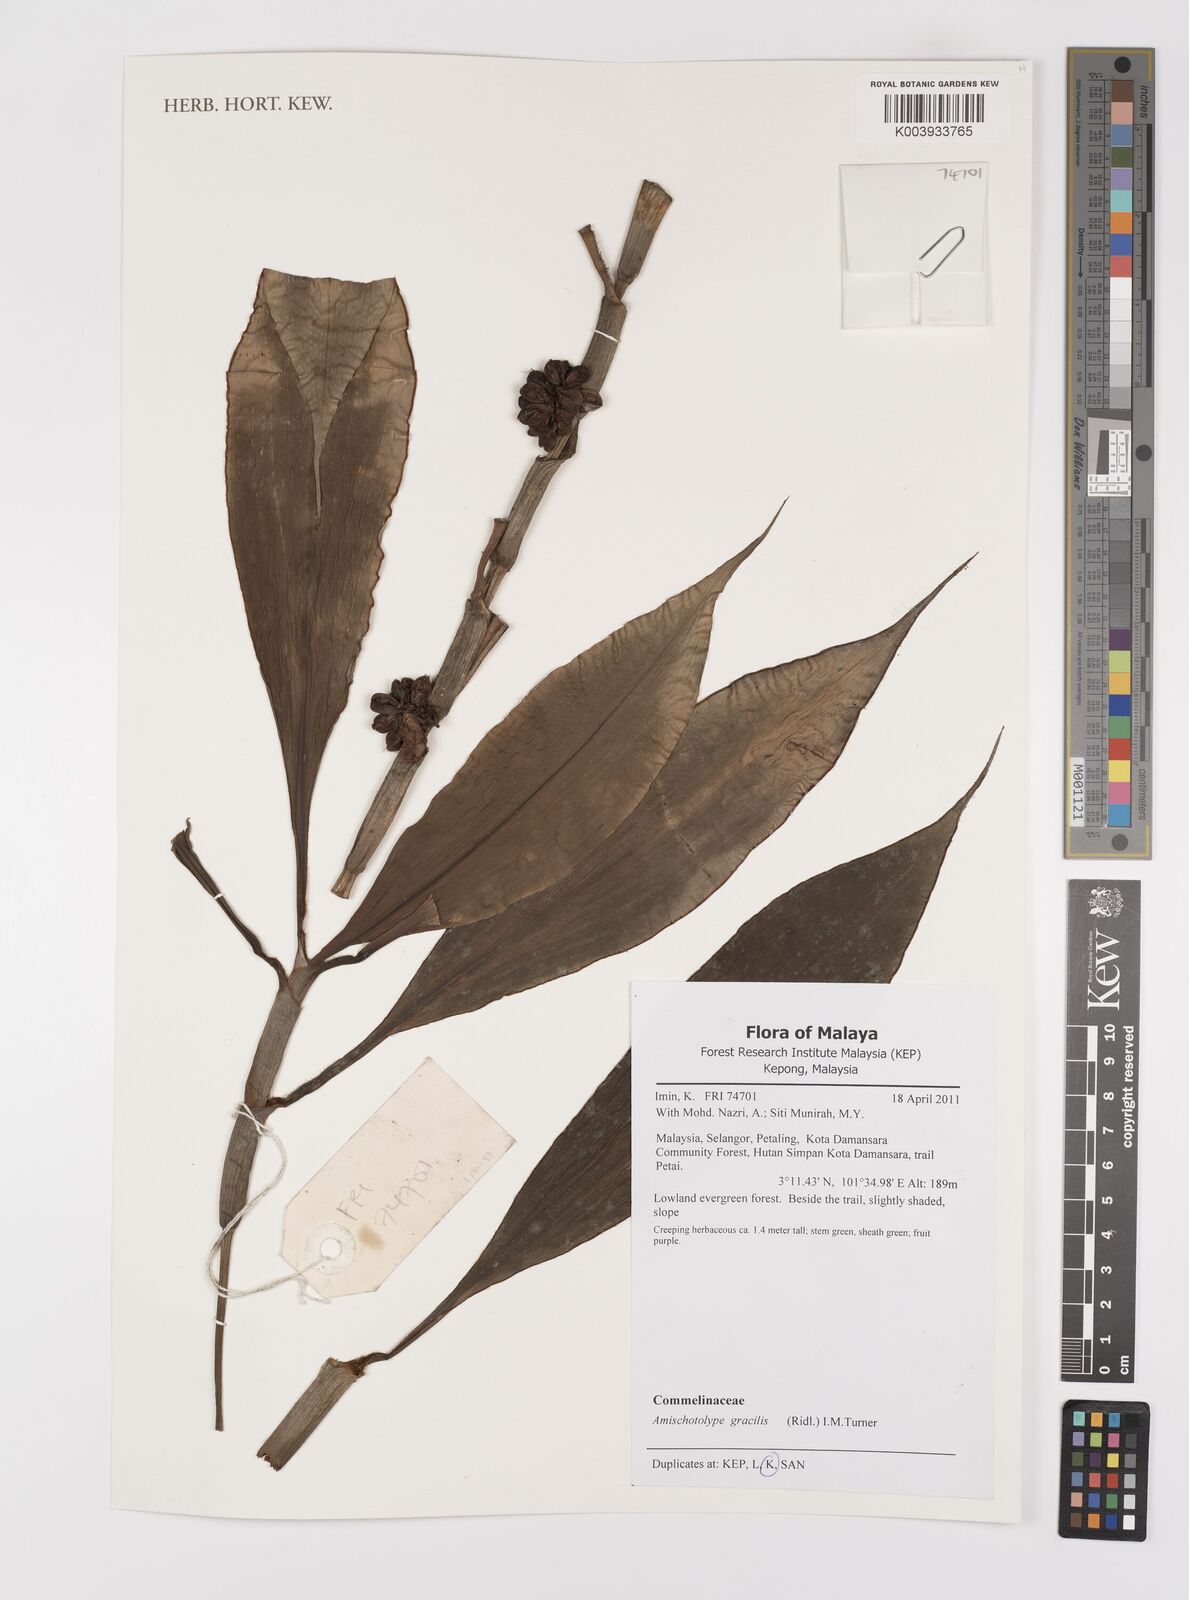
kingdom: Plantae
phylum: Tracheophyta
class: Liliopsida
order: Commelinales
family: Commelinaceae
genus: Amischotolype
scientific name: Amischotolype gracilis
